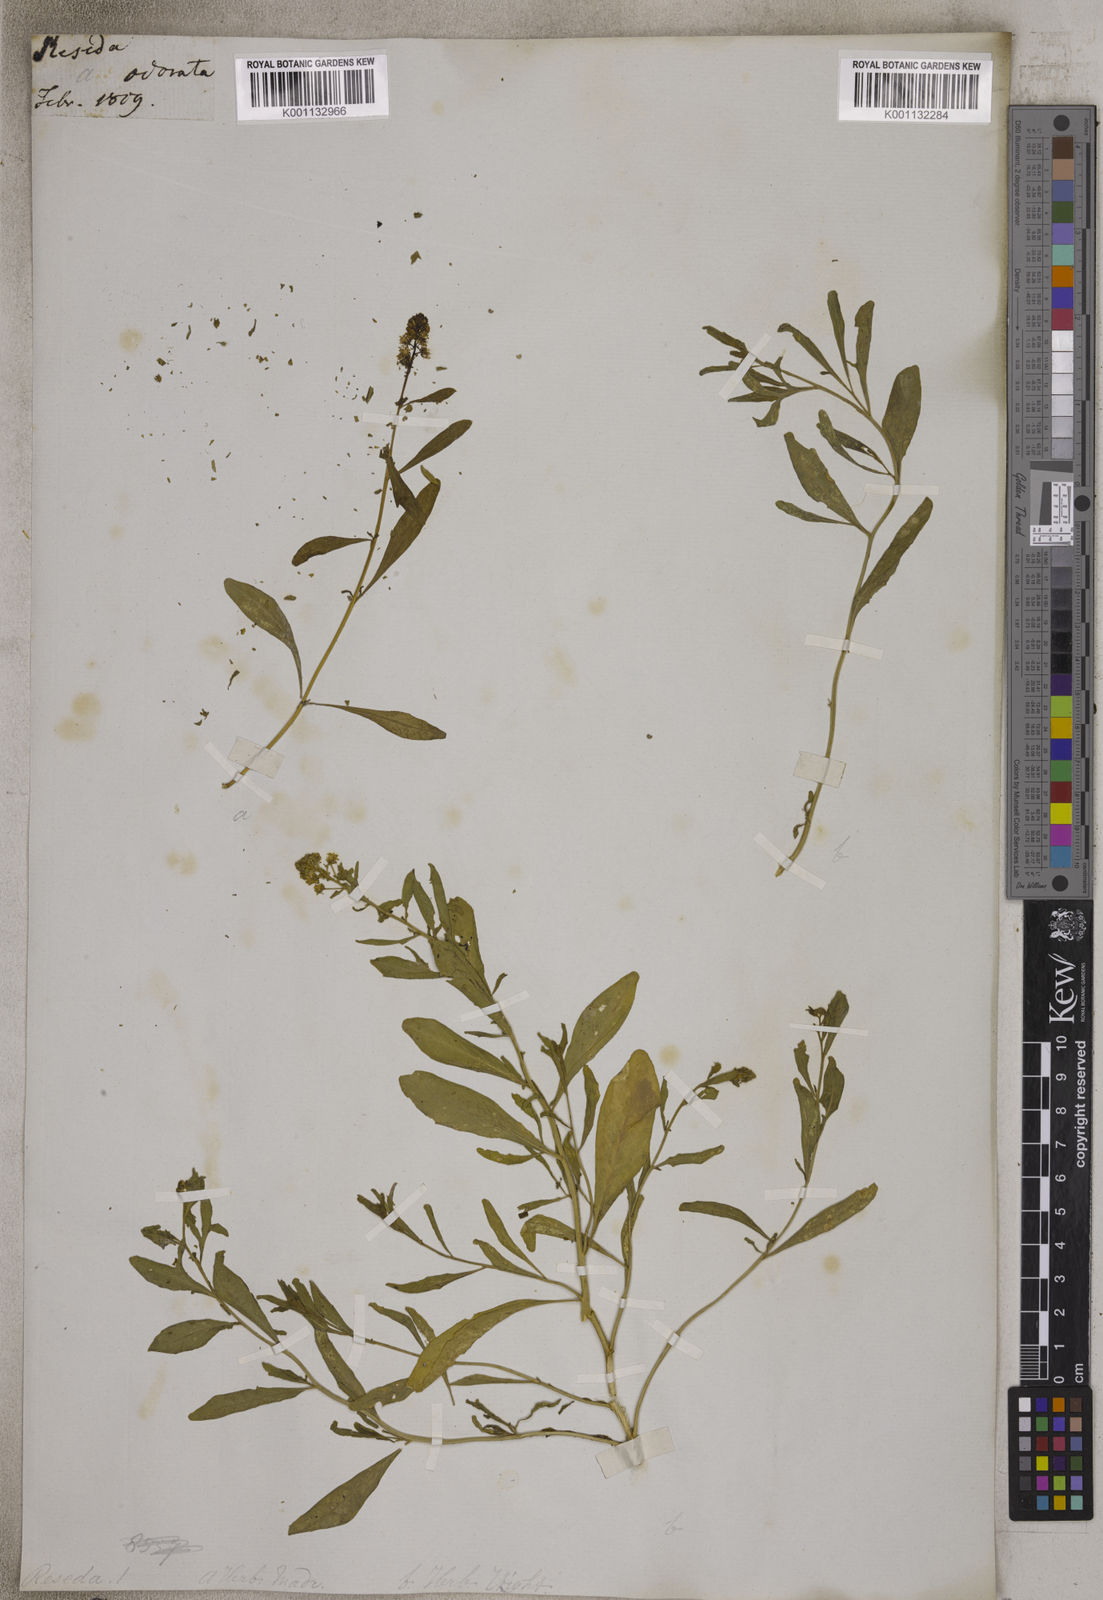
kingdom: Plantae
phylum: Tracheophyta
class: Magnoliopsida
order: Brassicales
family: Resedaceae
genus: Reseda
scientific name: Reseda
